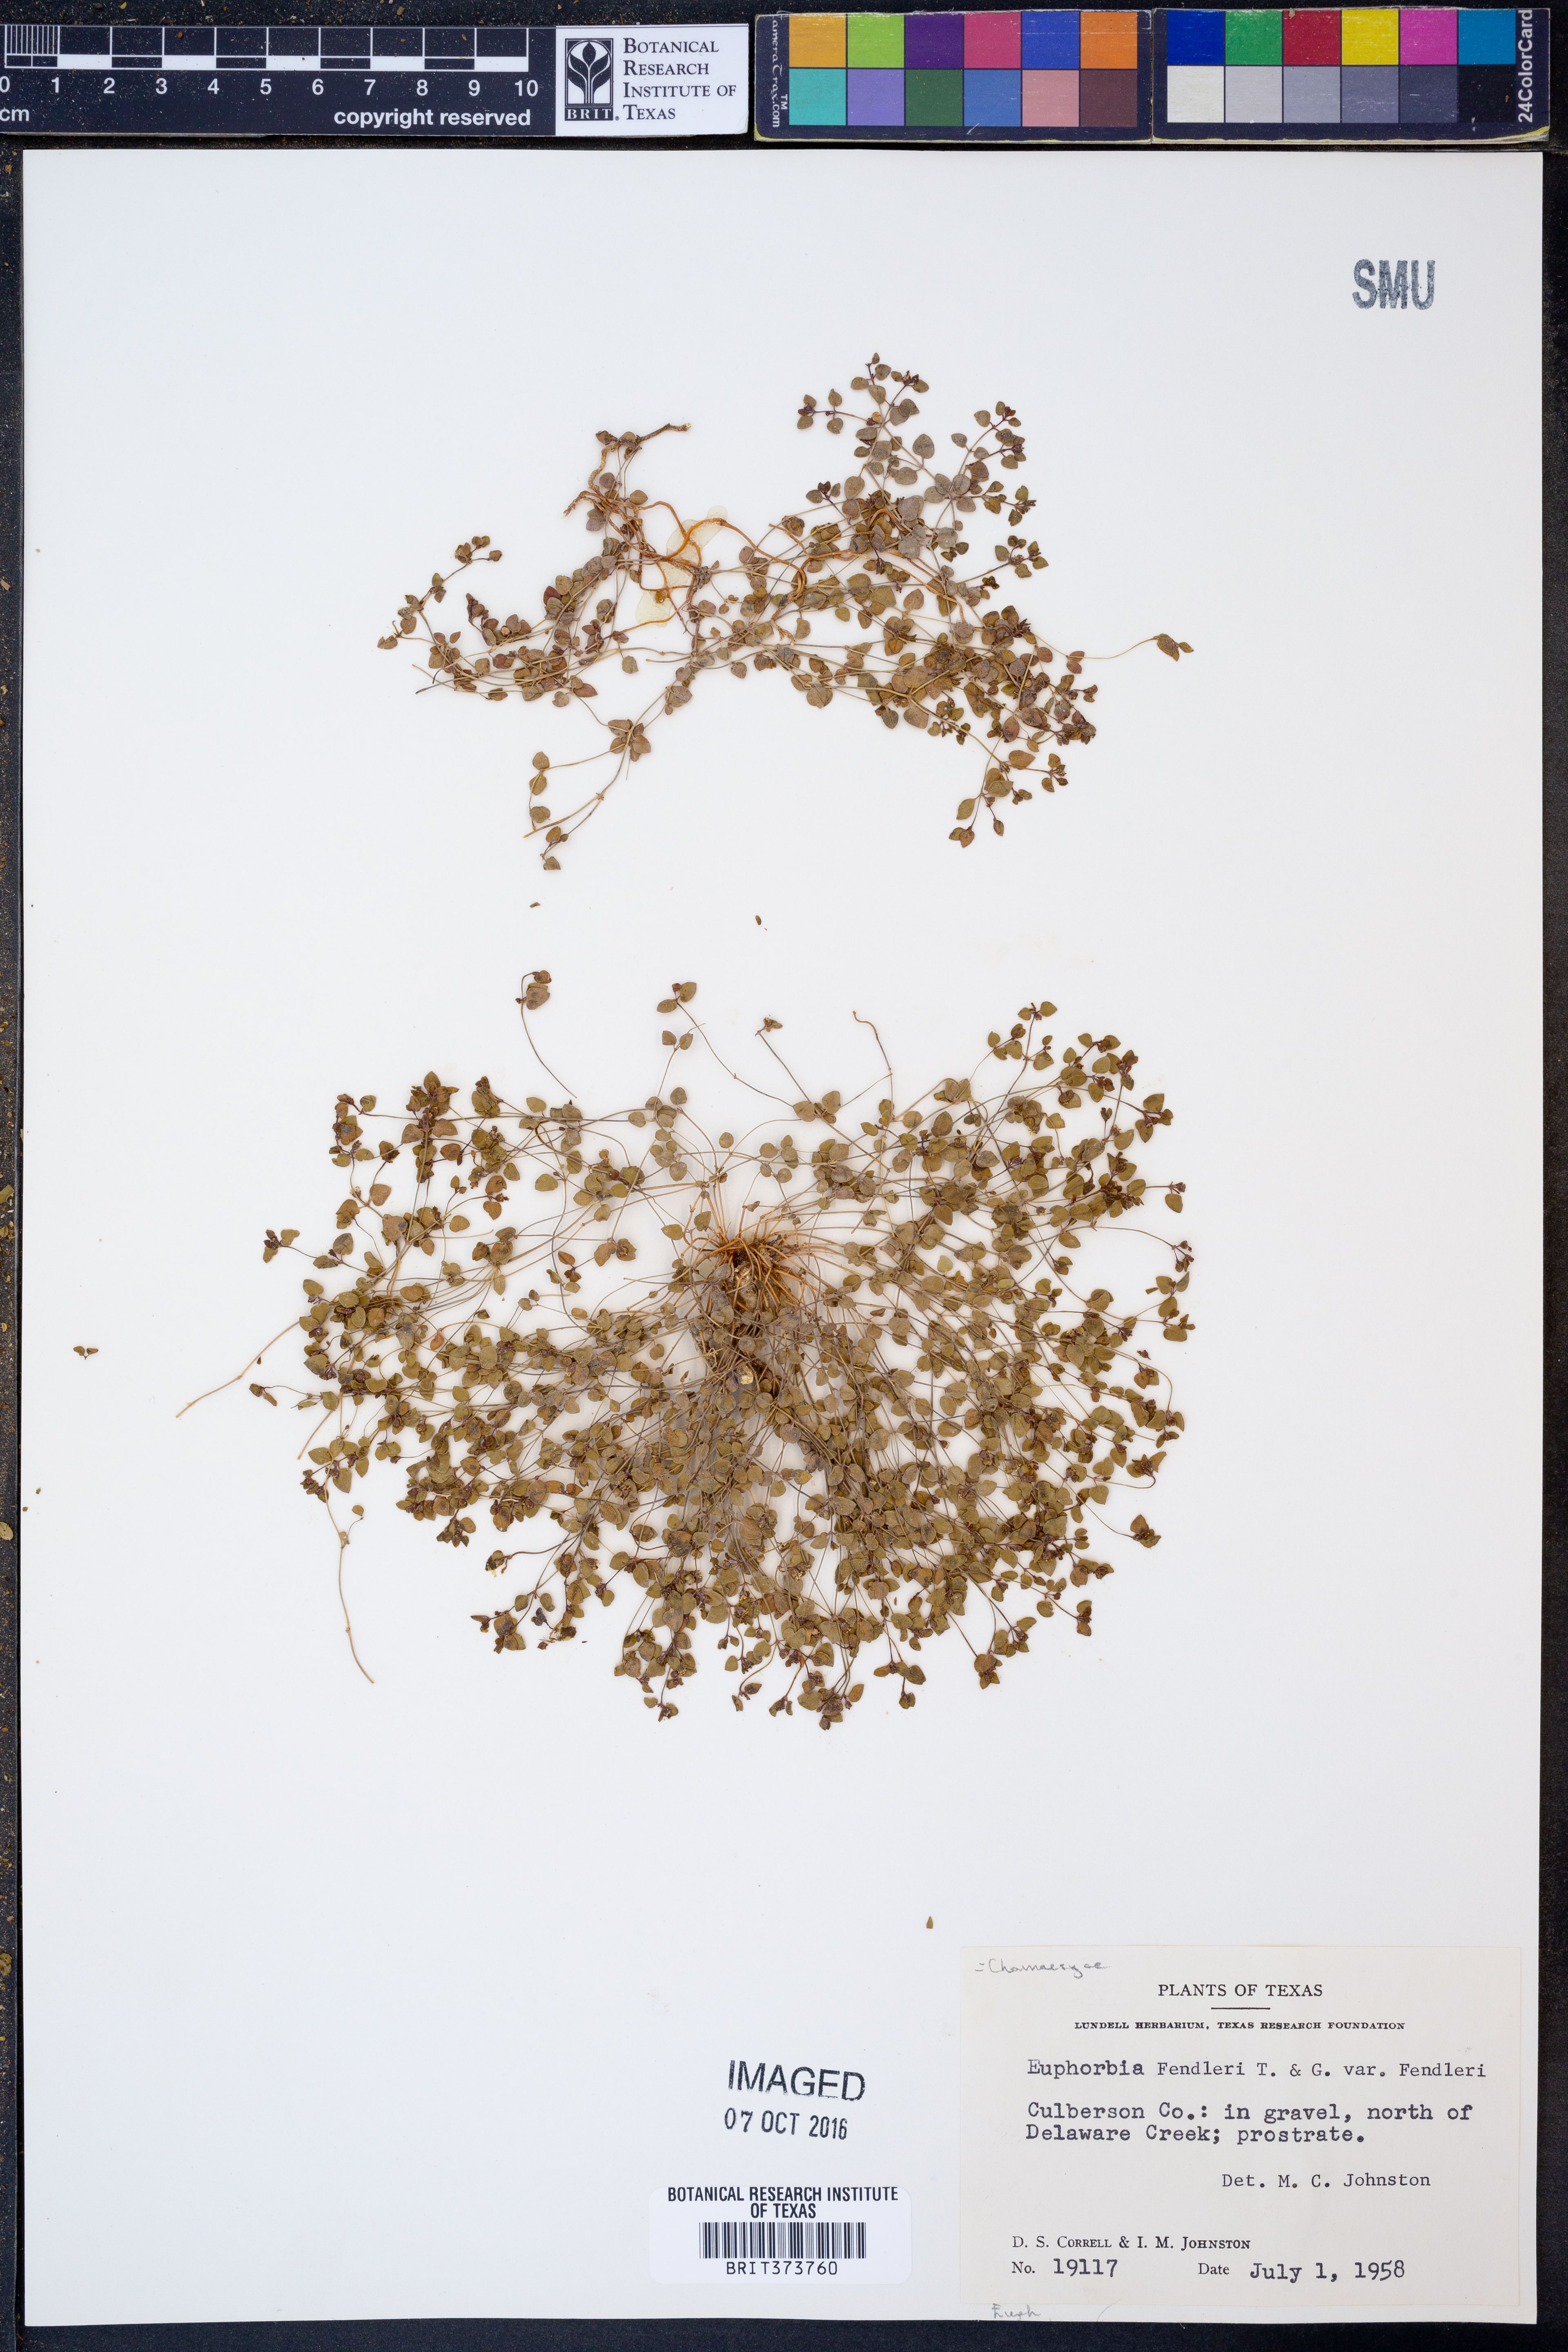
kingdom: Plantae
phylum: Tracheophyta
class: Magnoliopsida
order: Malpighiales
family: Euphorbiaceae
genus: Euphorbia
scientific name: Euphorbia fendleri
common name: Fendler's euphorbia
